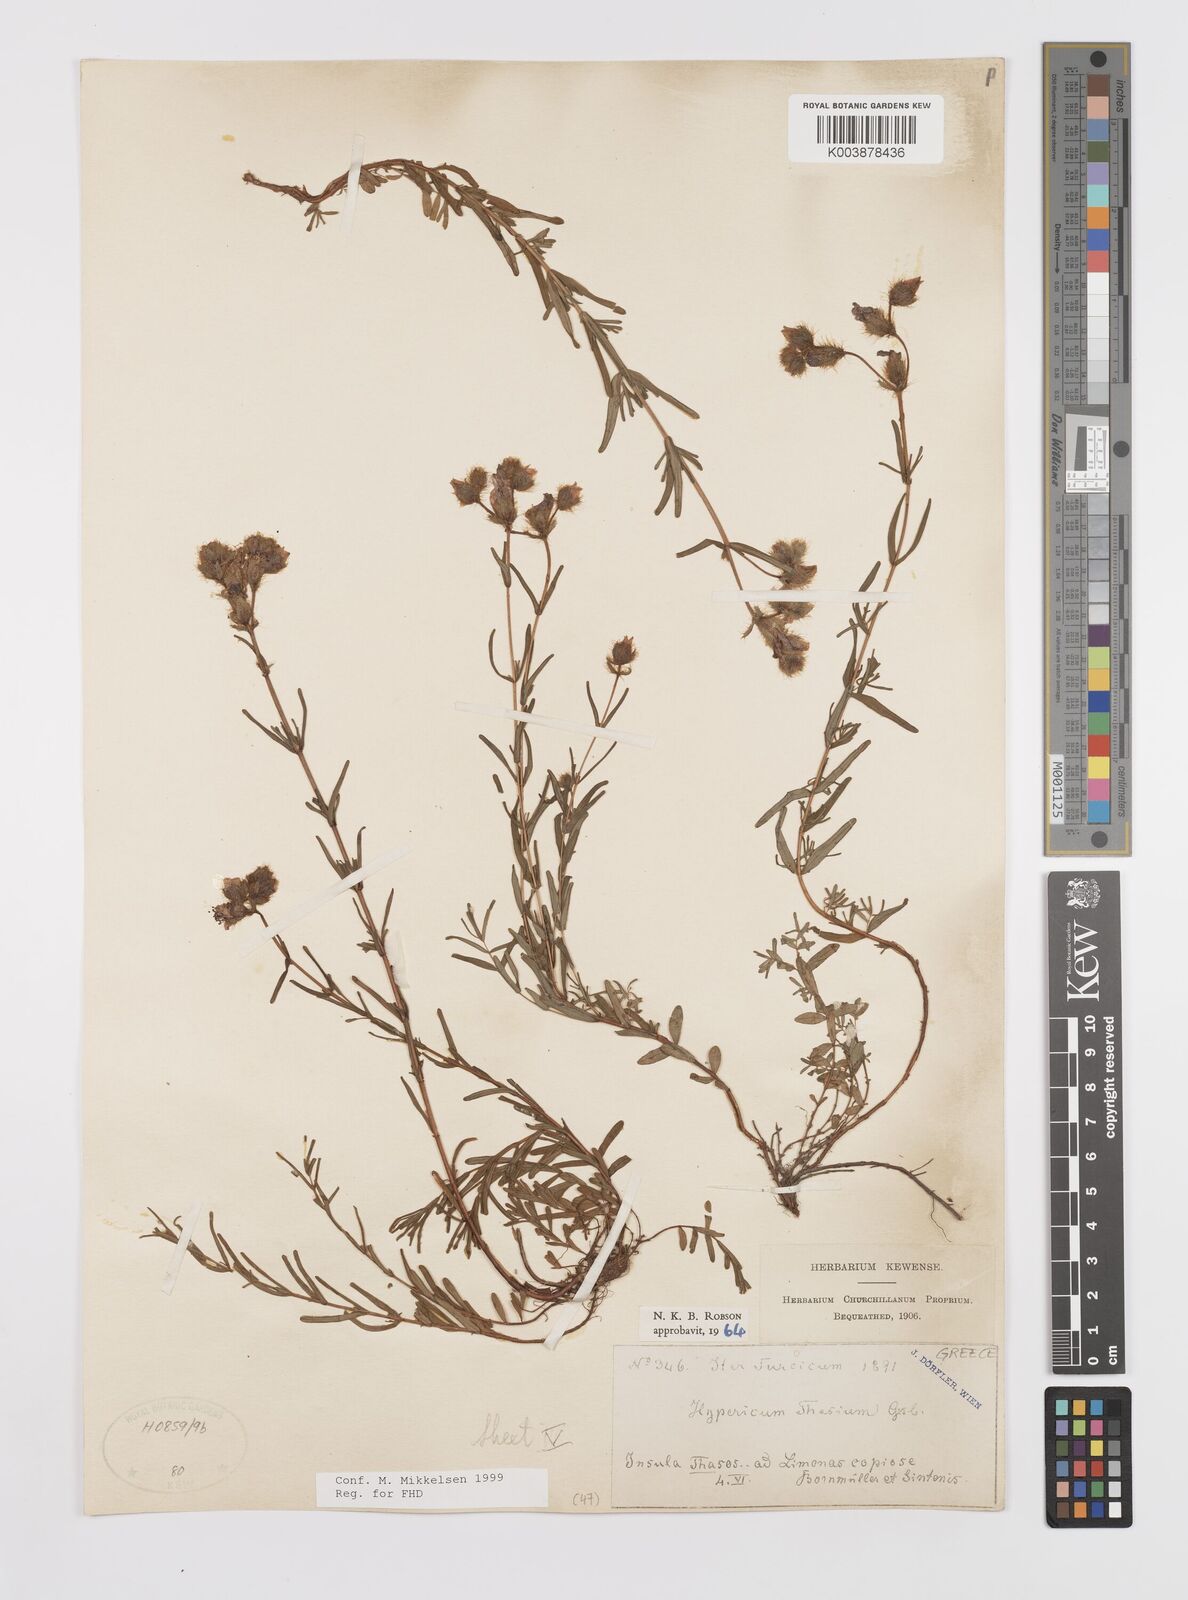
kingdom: Plantae
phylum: Tracheophyta
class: Magnoliopsida
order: Malpighiales
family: Hypericaceae
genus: Hypericum
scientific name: Hypericum thasium
